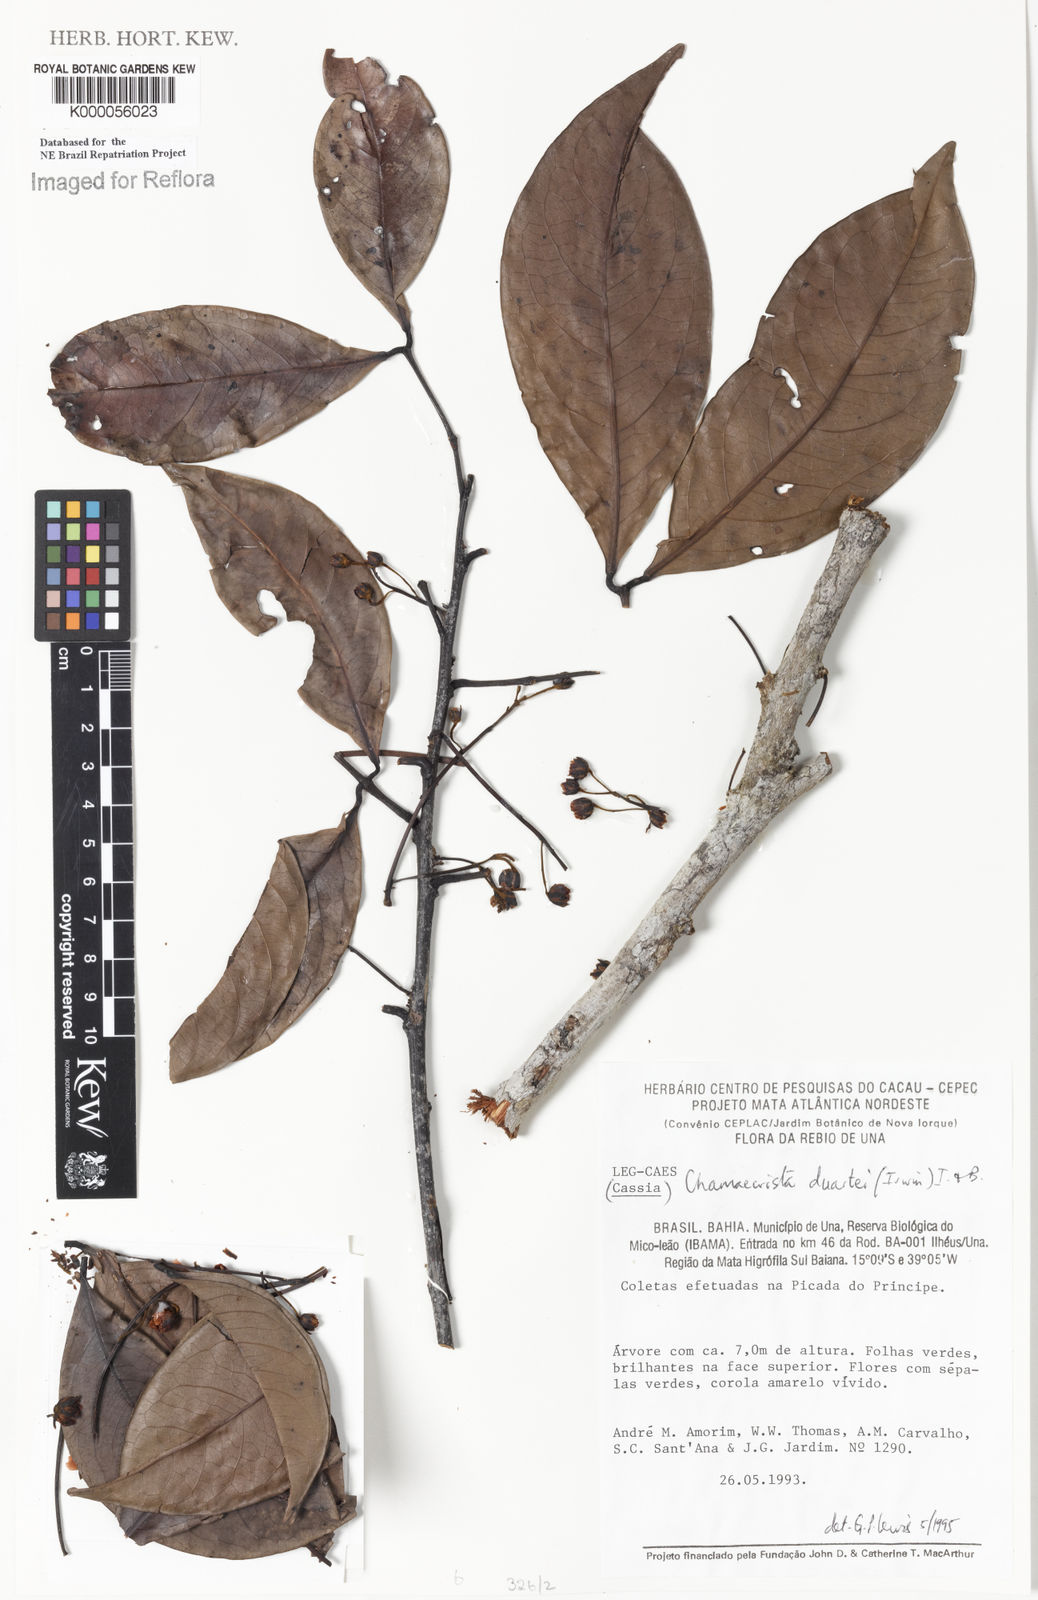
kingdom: Plantae
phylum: Tracheophyta
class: Magnoliopsida
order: Fabales
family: Fabaceae
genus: Chamaecrista
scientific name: Chamaecrista duartei
